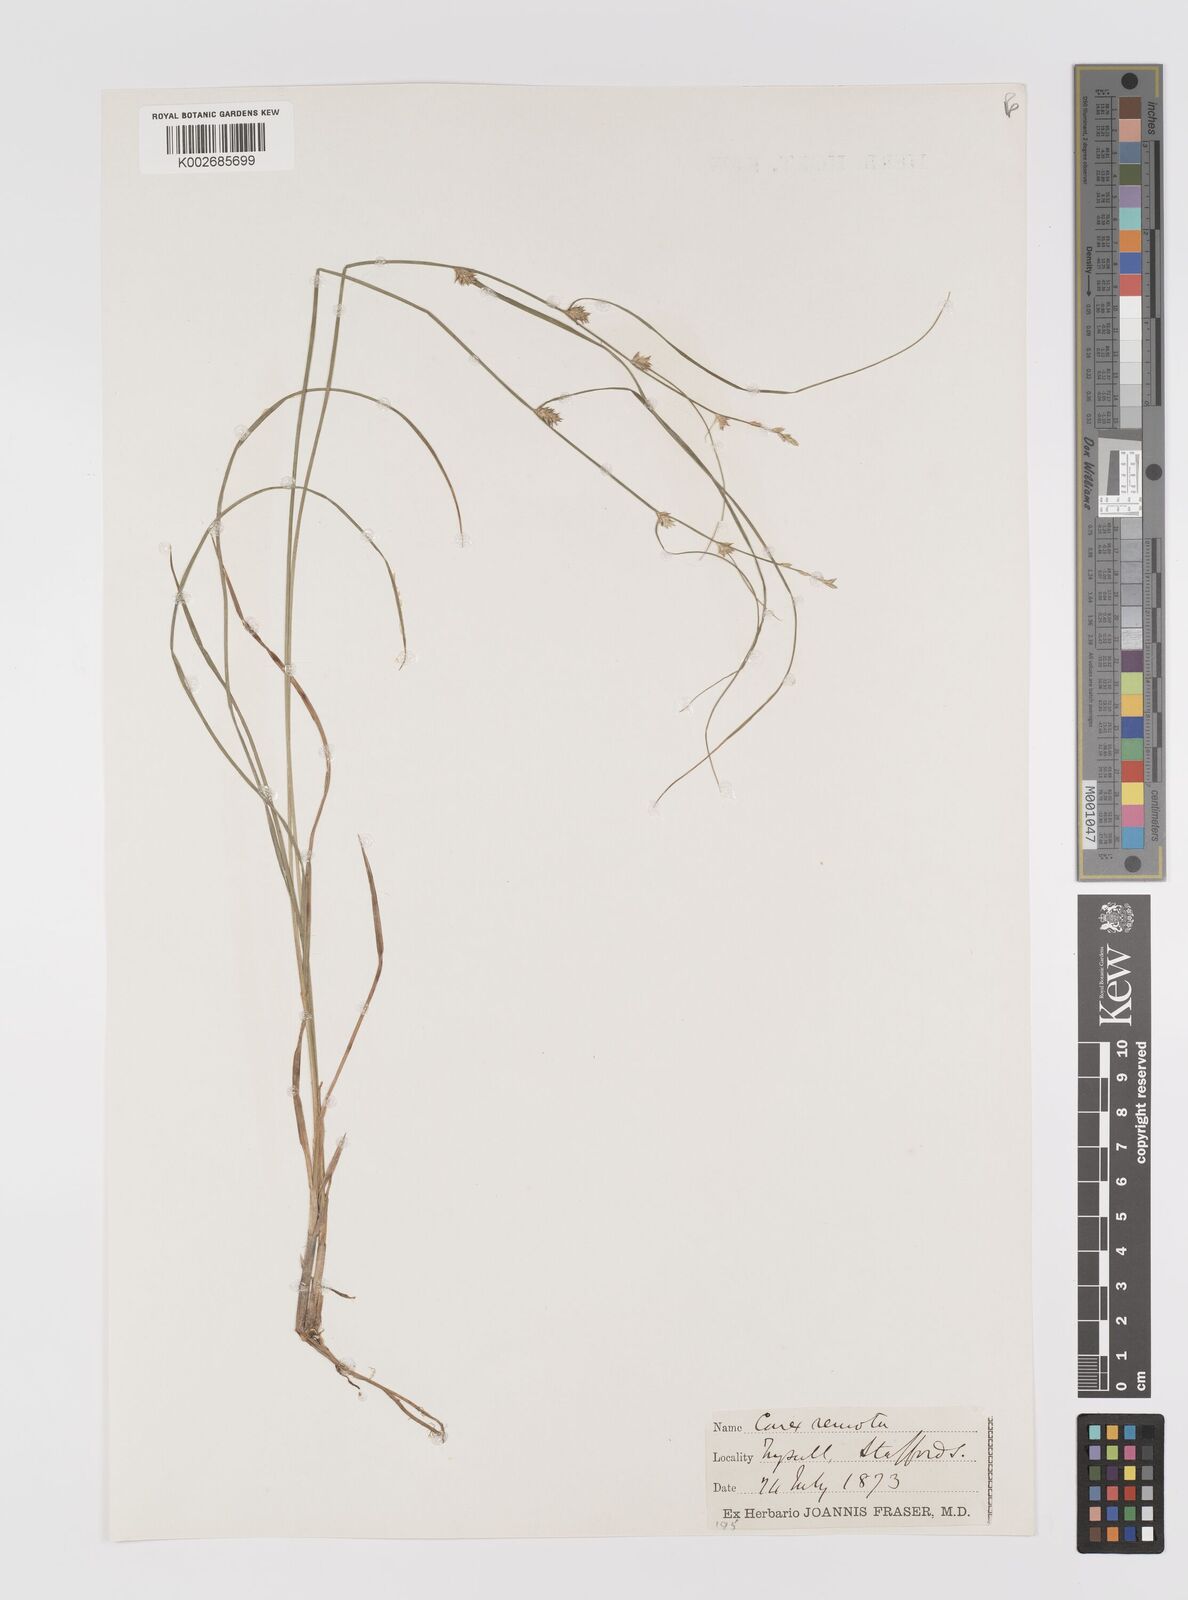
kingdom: Plantae
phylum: Tracheophyta
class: Liliopsida
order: Poales
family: Cyperaceae
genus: Carex
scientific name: Carex remota
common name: Remote sedge
